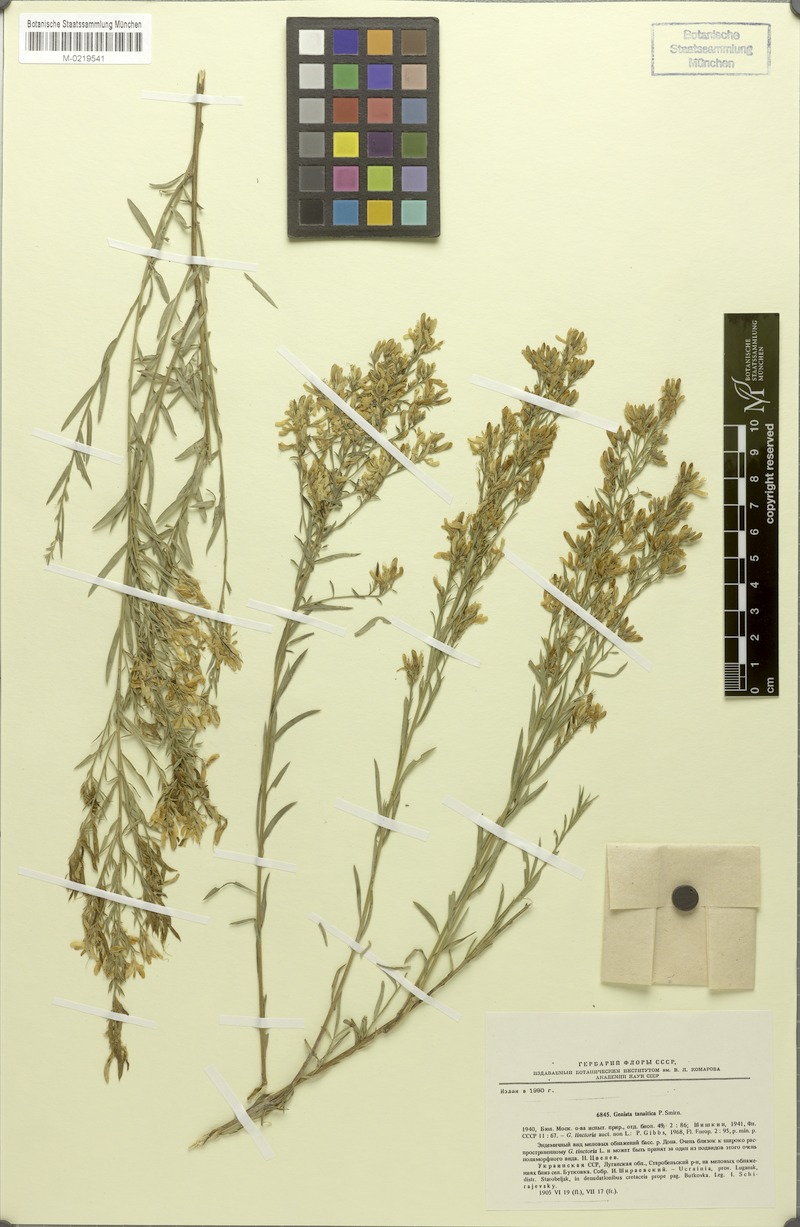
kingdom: Plantae
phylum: Tracheophyta
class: Magnoliopsida
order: Fabales
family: Fabaceae
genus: Genista
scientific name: Genista tinctoria
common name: Dyer's greenweed
